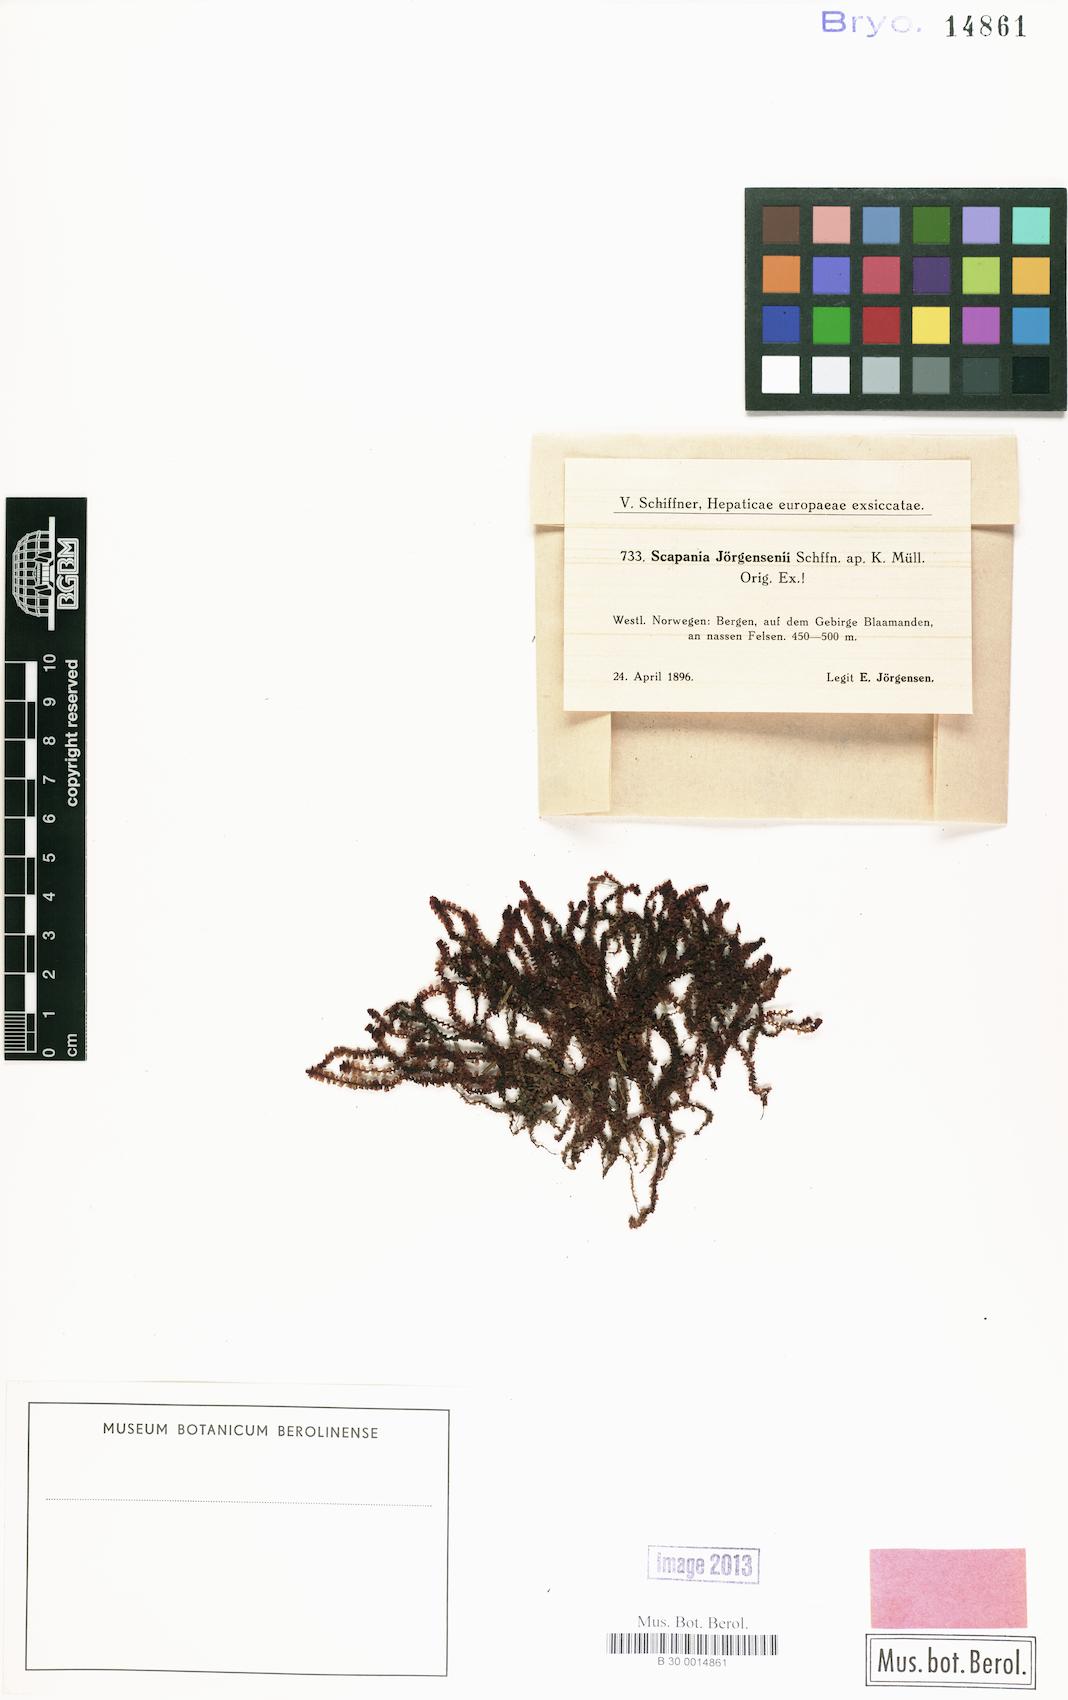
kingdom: Plantae
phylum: Marchantiophyta
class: Jungermanniopsida
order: Jungermanniales
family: Scapaniaceae
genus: Scapania
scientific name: Scapania nemorea
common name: Grove earwort
